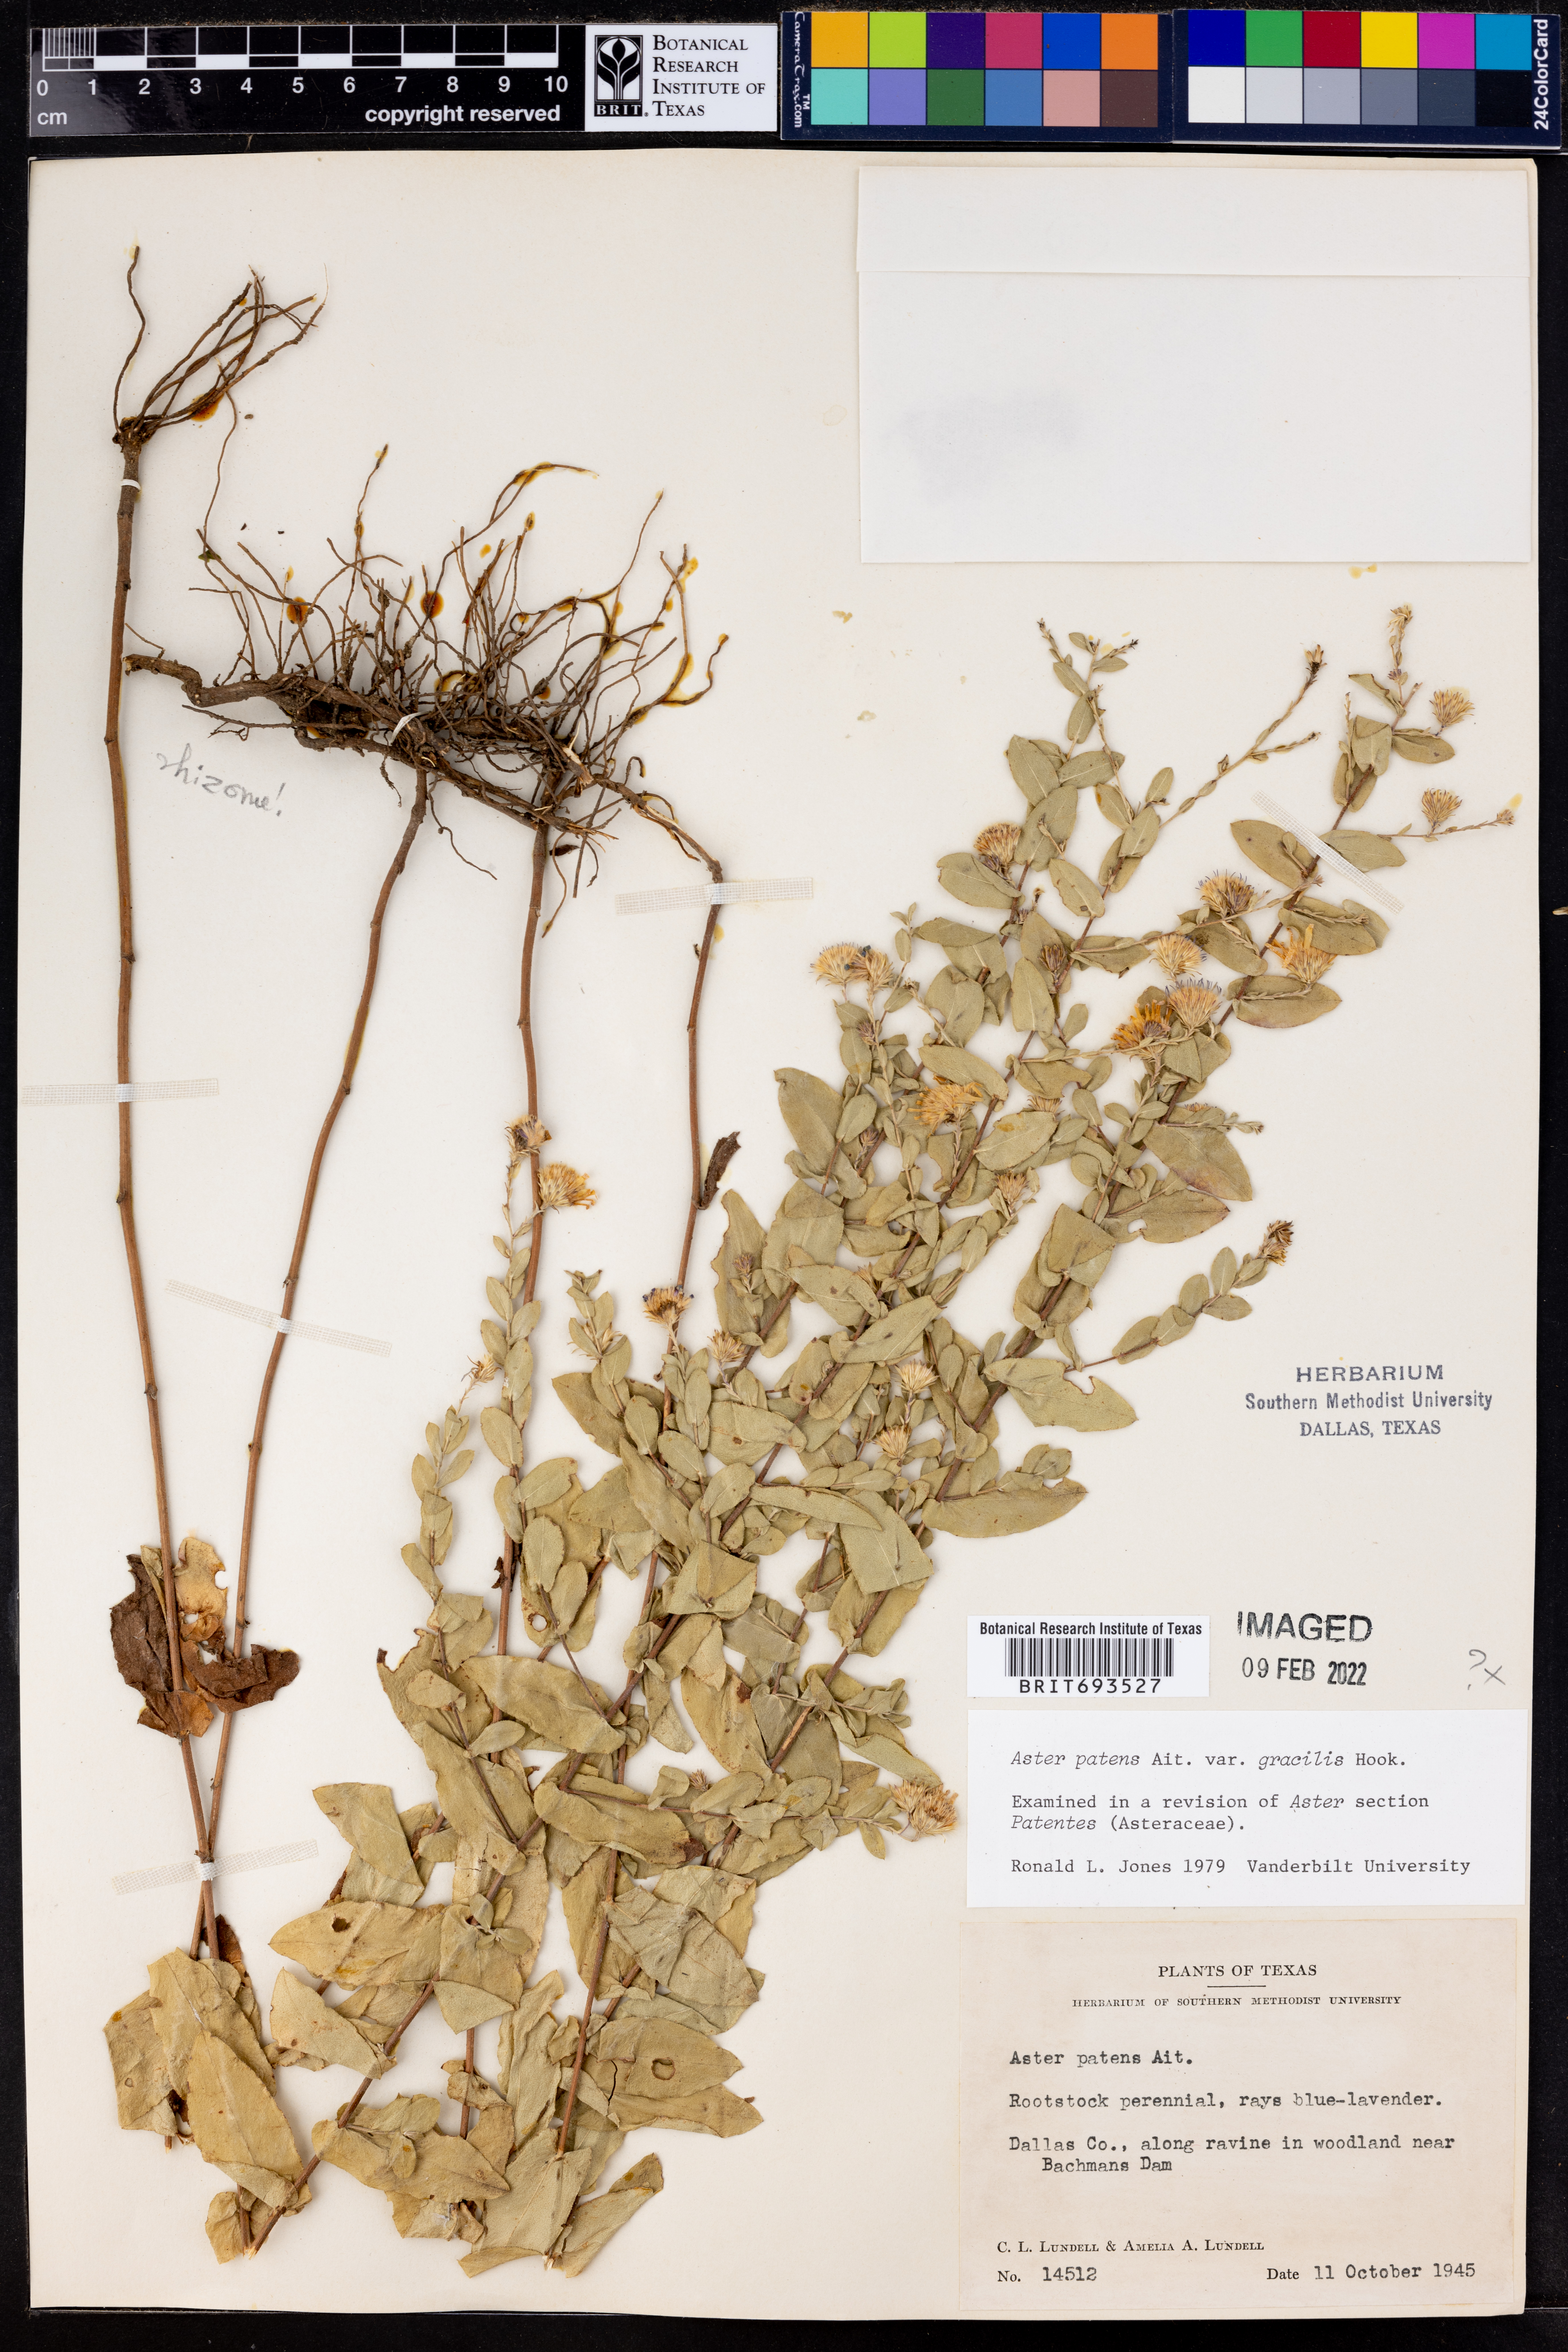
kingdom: Plantae
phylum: Tracheophyta
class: Magnoliopsida
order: Asterales
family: Asteraceae
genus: Symphyotrichum
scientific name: Symphyotrichum patens
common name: Late purple aster
